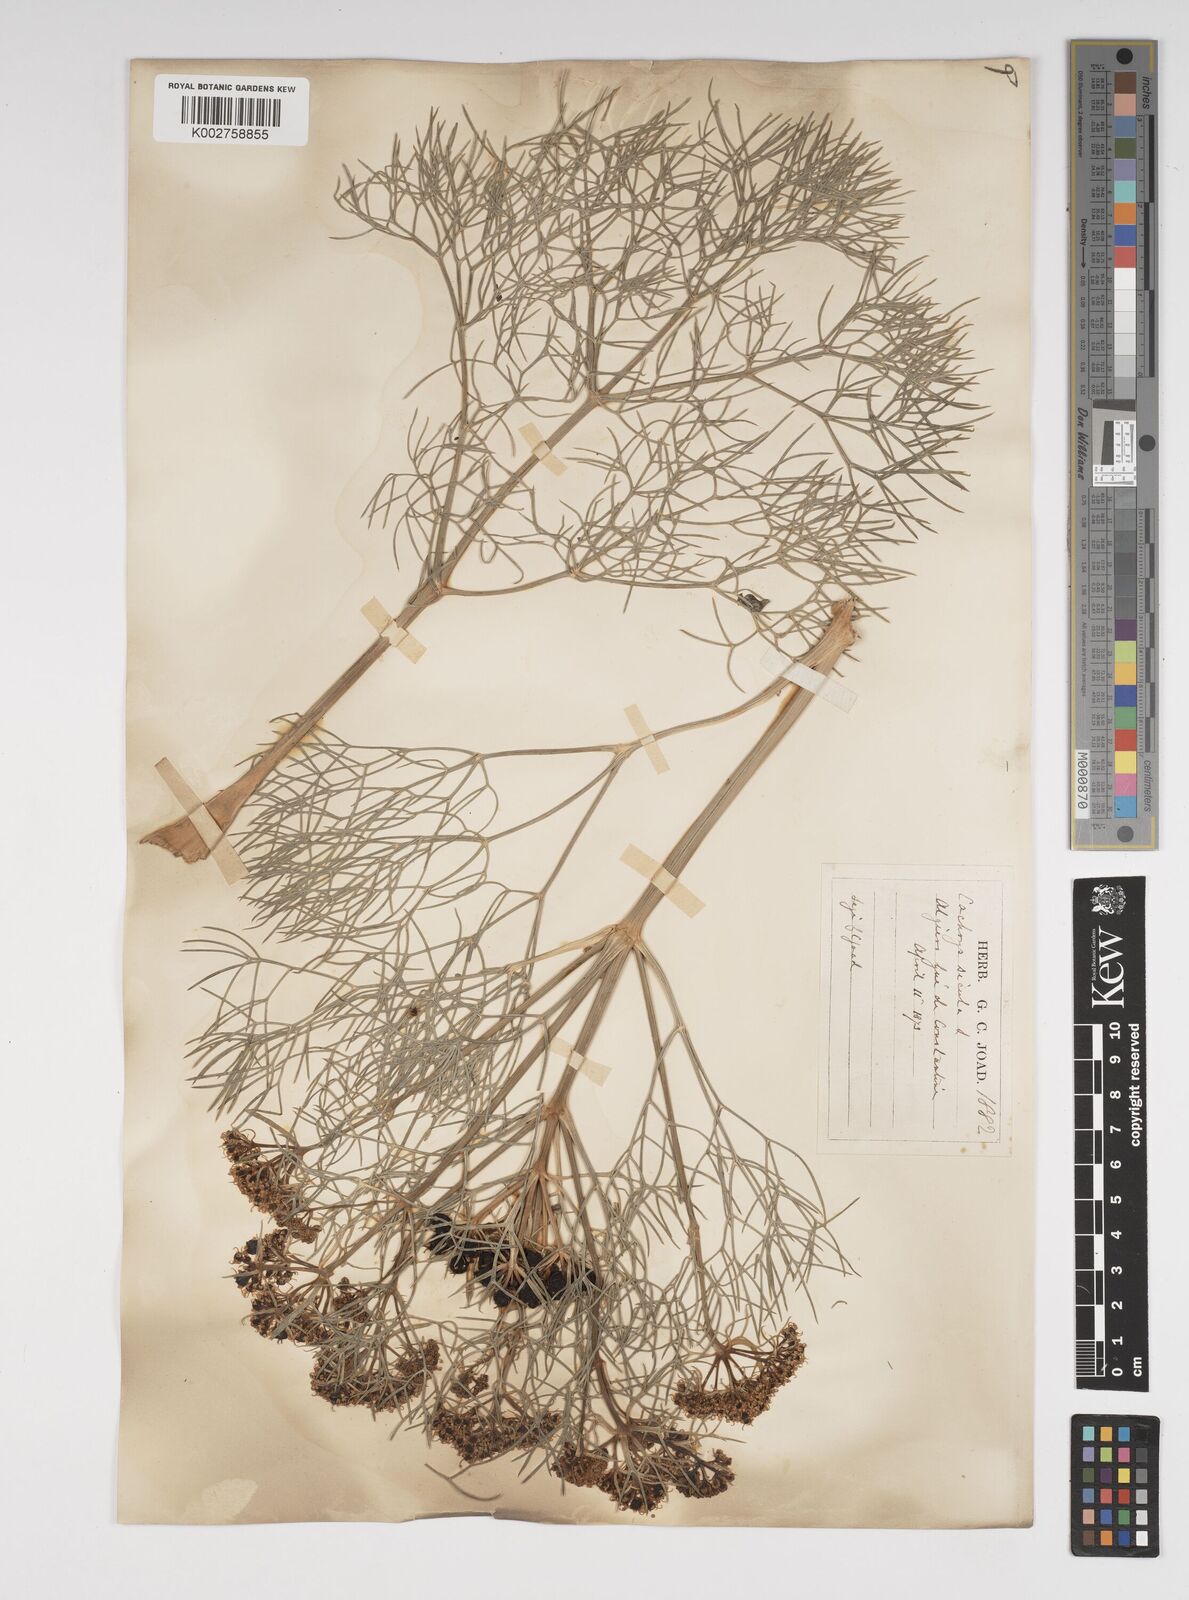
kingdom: Plantae
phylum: Tracheophyta
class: Magnoliopsida
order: Apiales
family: Apiaceae
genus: Cachrys
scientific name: Cachrys
